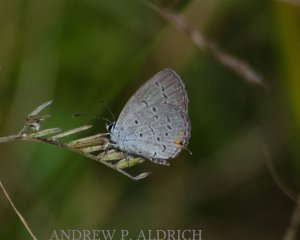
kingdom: Animalia
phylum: Arthropoda
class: Insecta
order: Lepidoptera
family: Lycaenidae
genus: Elkalyce
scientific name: Elkalyce comyntas
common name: Eastern Tailed-Blue
